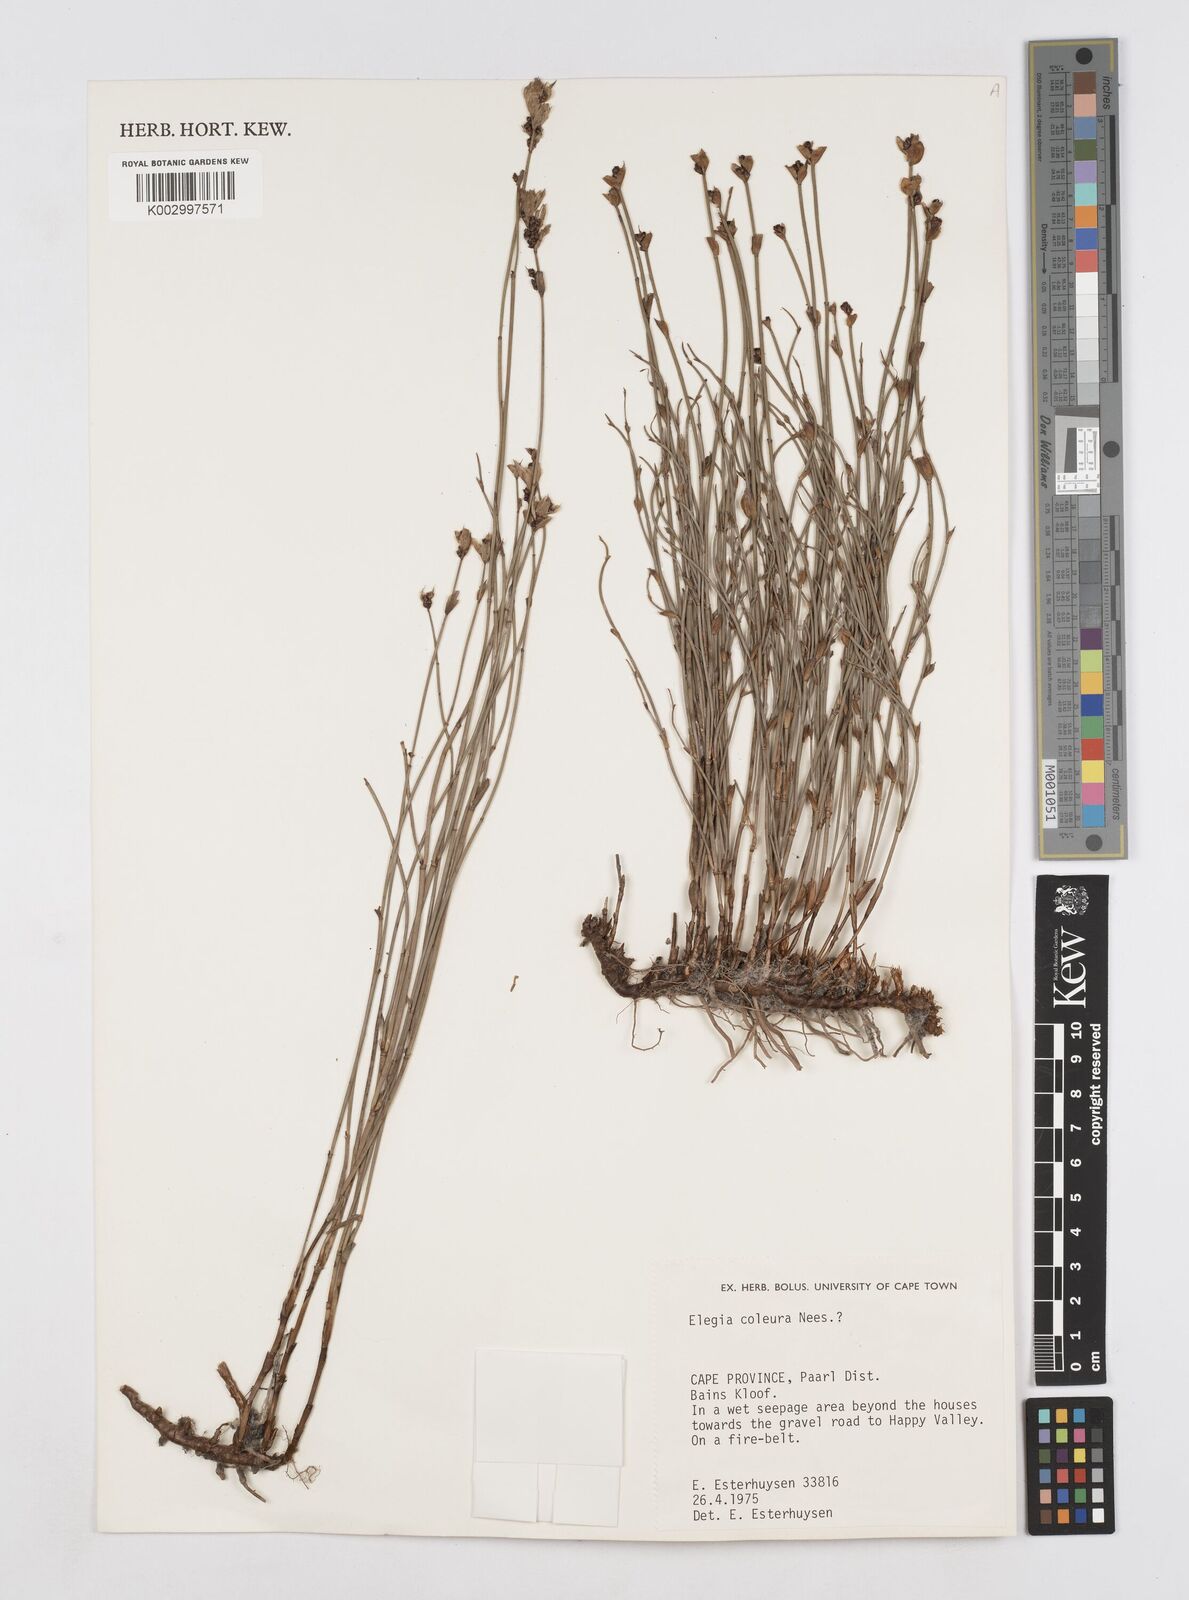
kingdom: Plantae
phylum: Tracheophyta
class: Liliopsida
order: Poales
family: Restionaceae
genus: Elegia
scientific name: Elegia coleura
